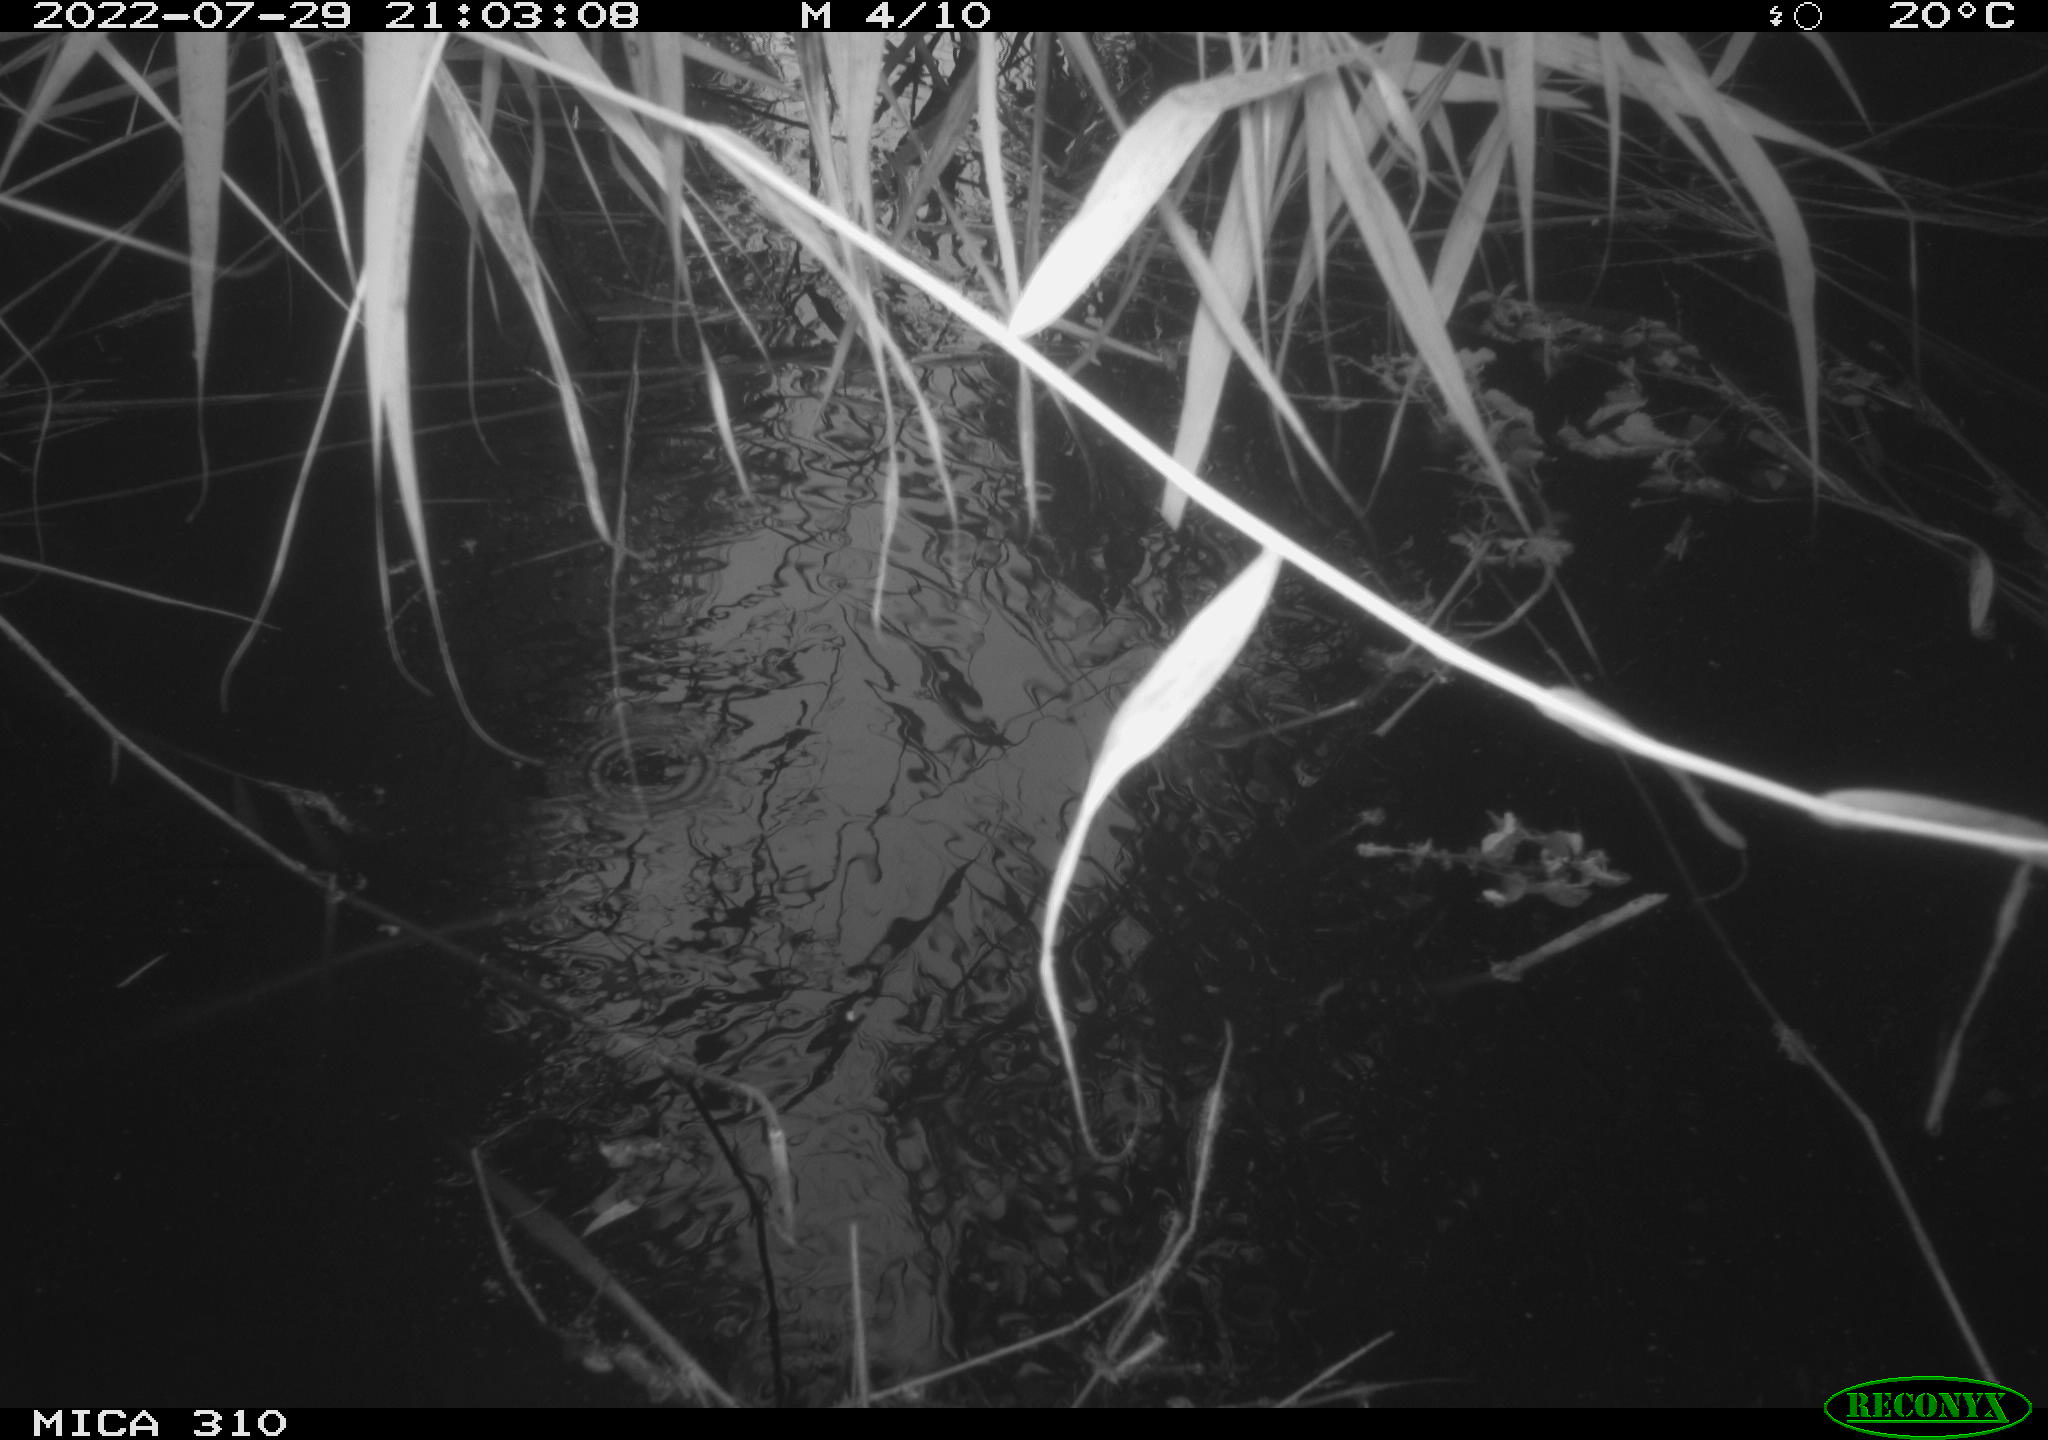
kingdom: Animalia
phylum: Chordata
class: Aves
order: Anseriformes
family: Anatidae
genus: Anas
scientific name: Anas platyrhynchos
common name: Mallard
